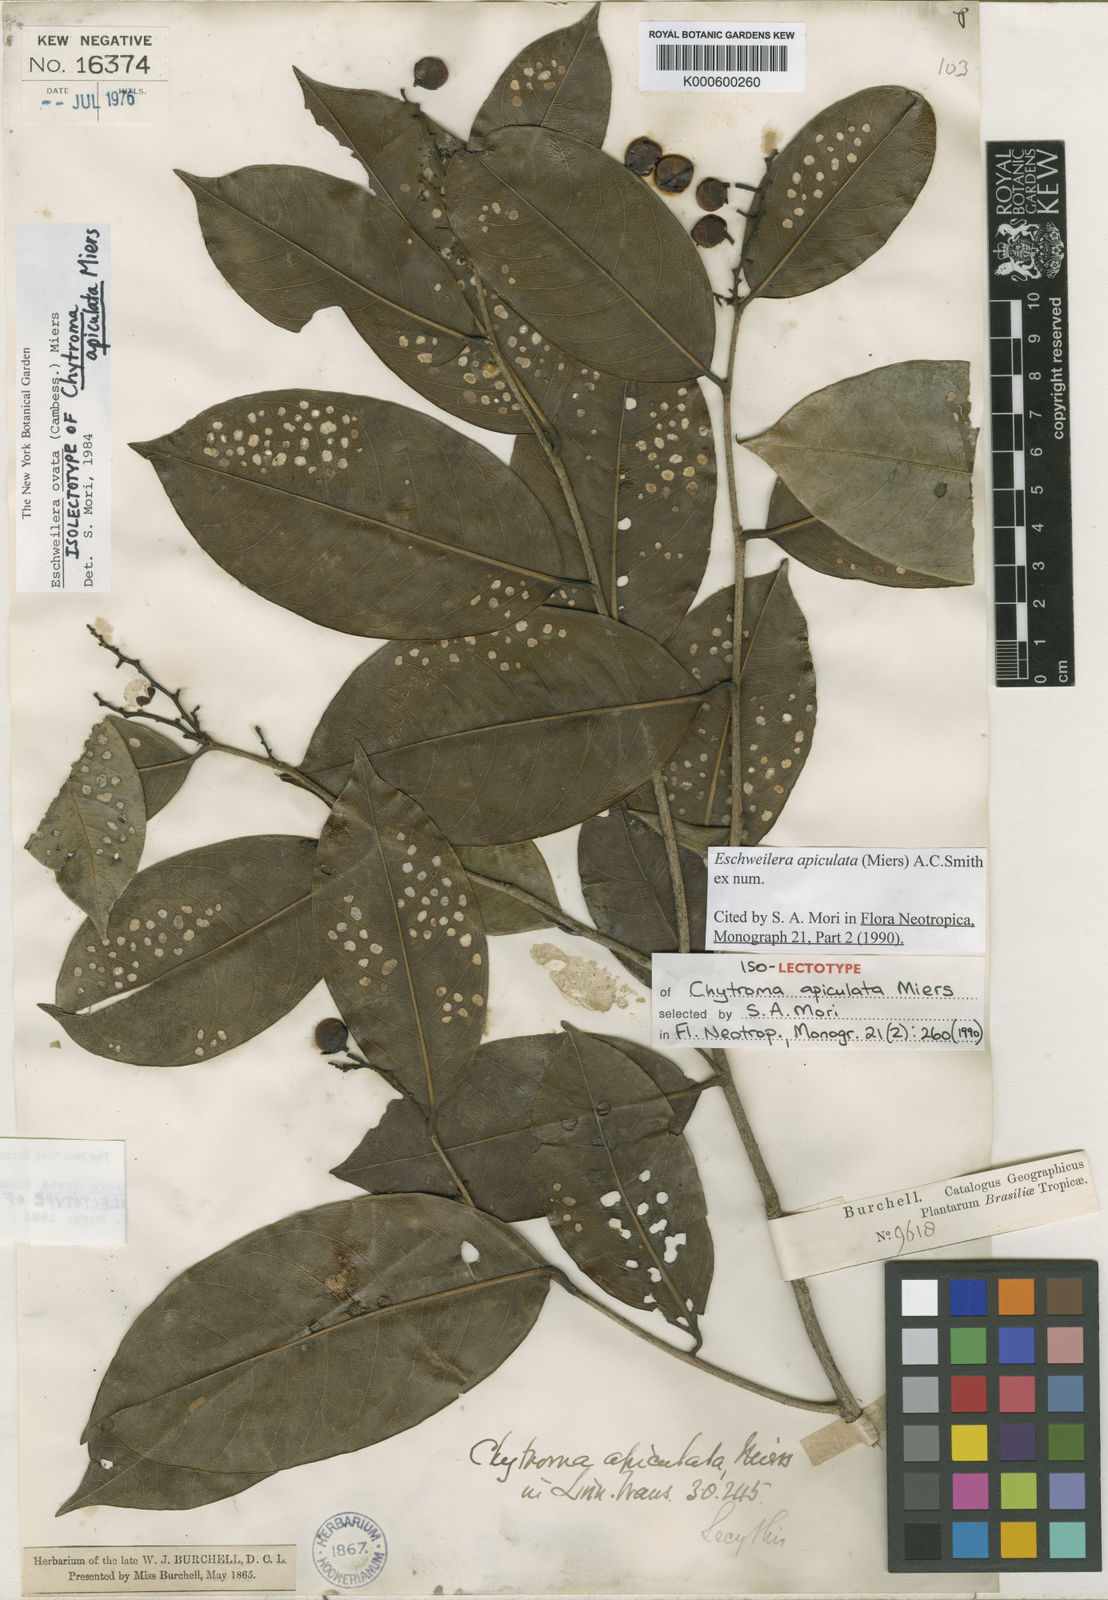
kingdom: Plantae
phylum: Tracheophyta
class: Magnoliopsida
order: Ericales
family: Lecythidaceae
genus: Eschweilera
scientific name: Eschweilera apiculata
